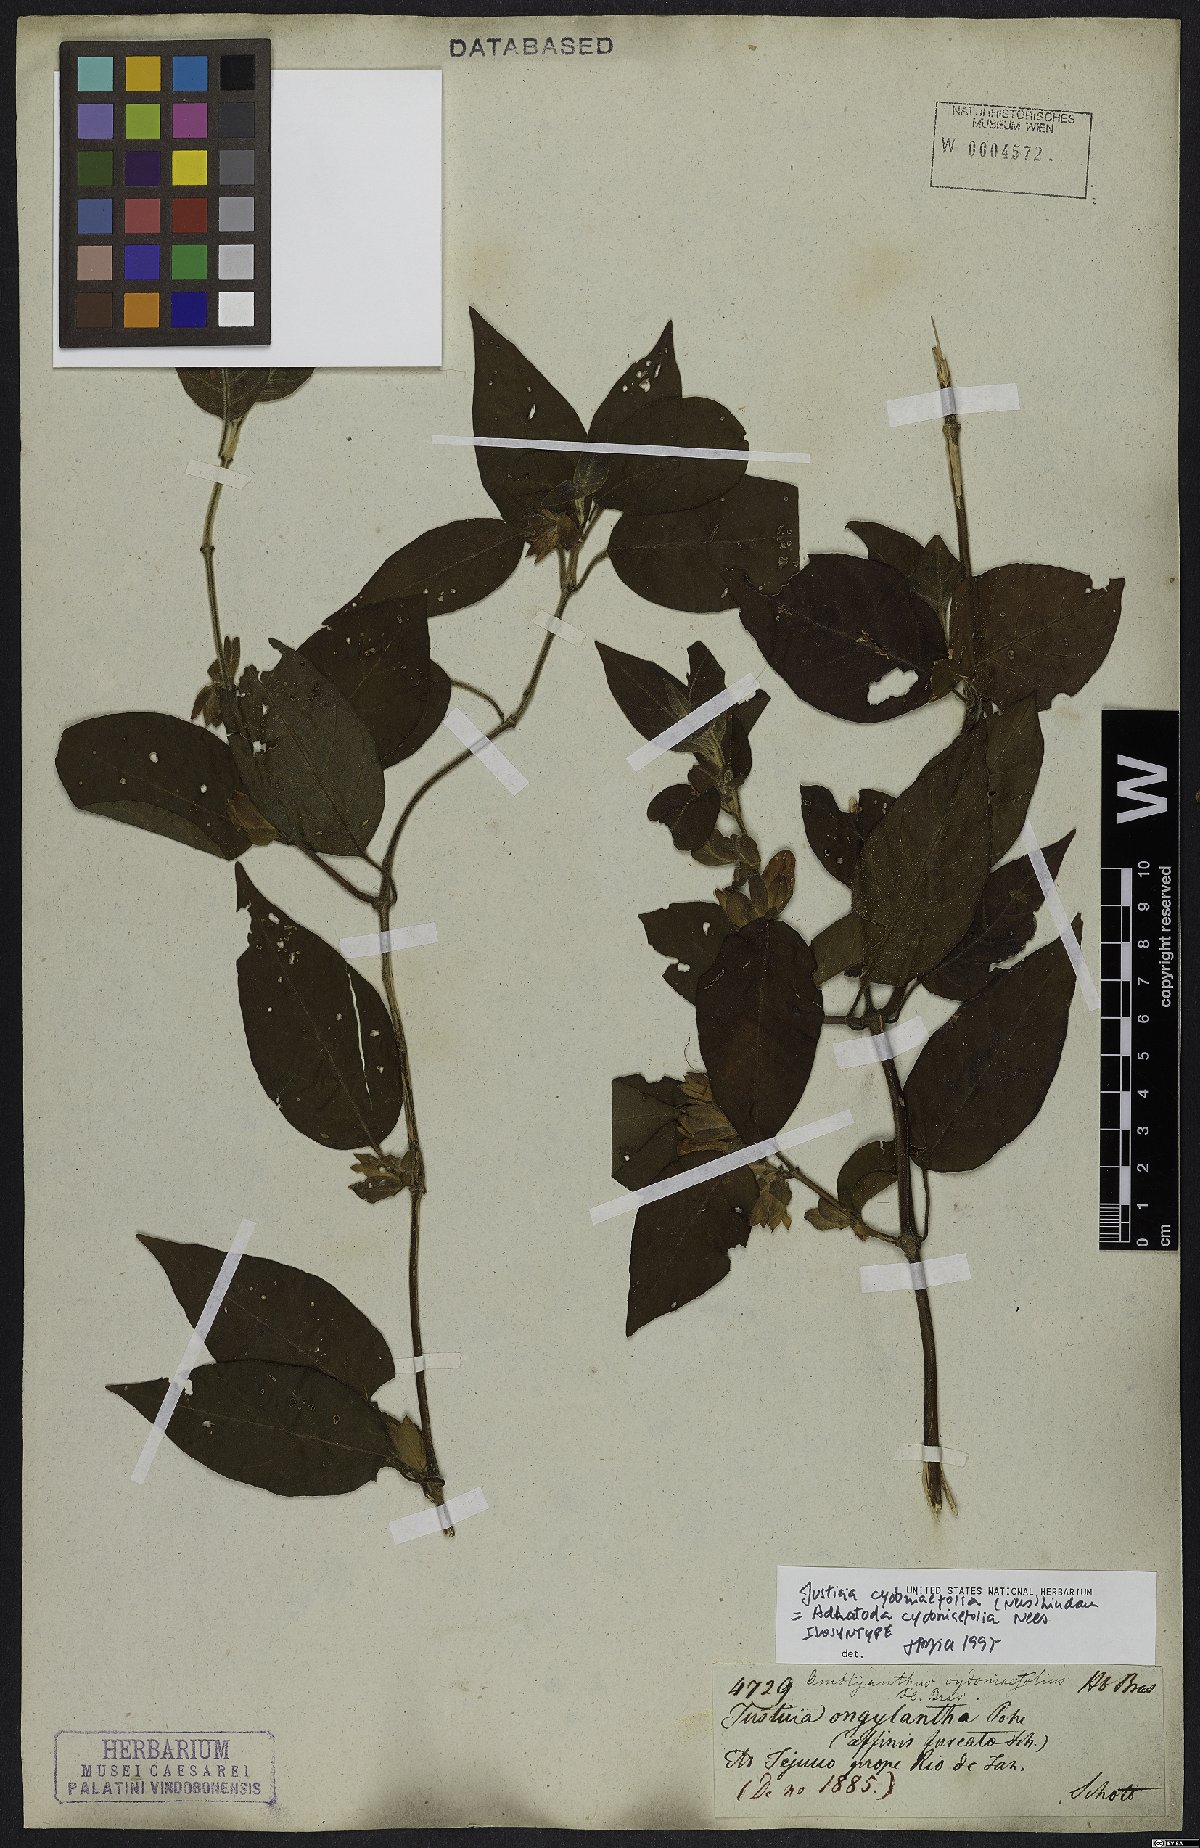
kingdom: Plantae
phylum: Tracheophyta
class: Magnoliopsida
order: Lamiales
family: Acanthaceae
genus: Justicia
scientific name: Justicia cydoniifolia
